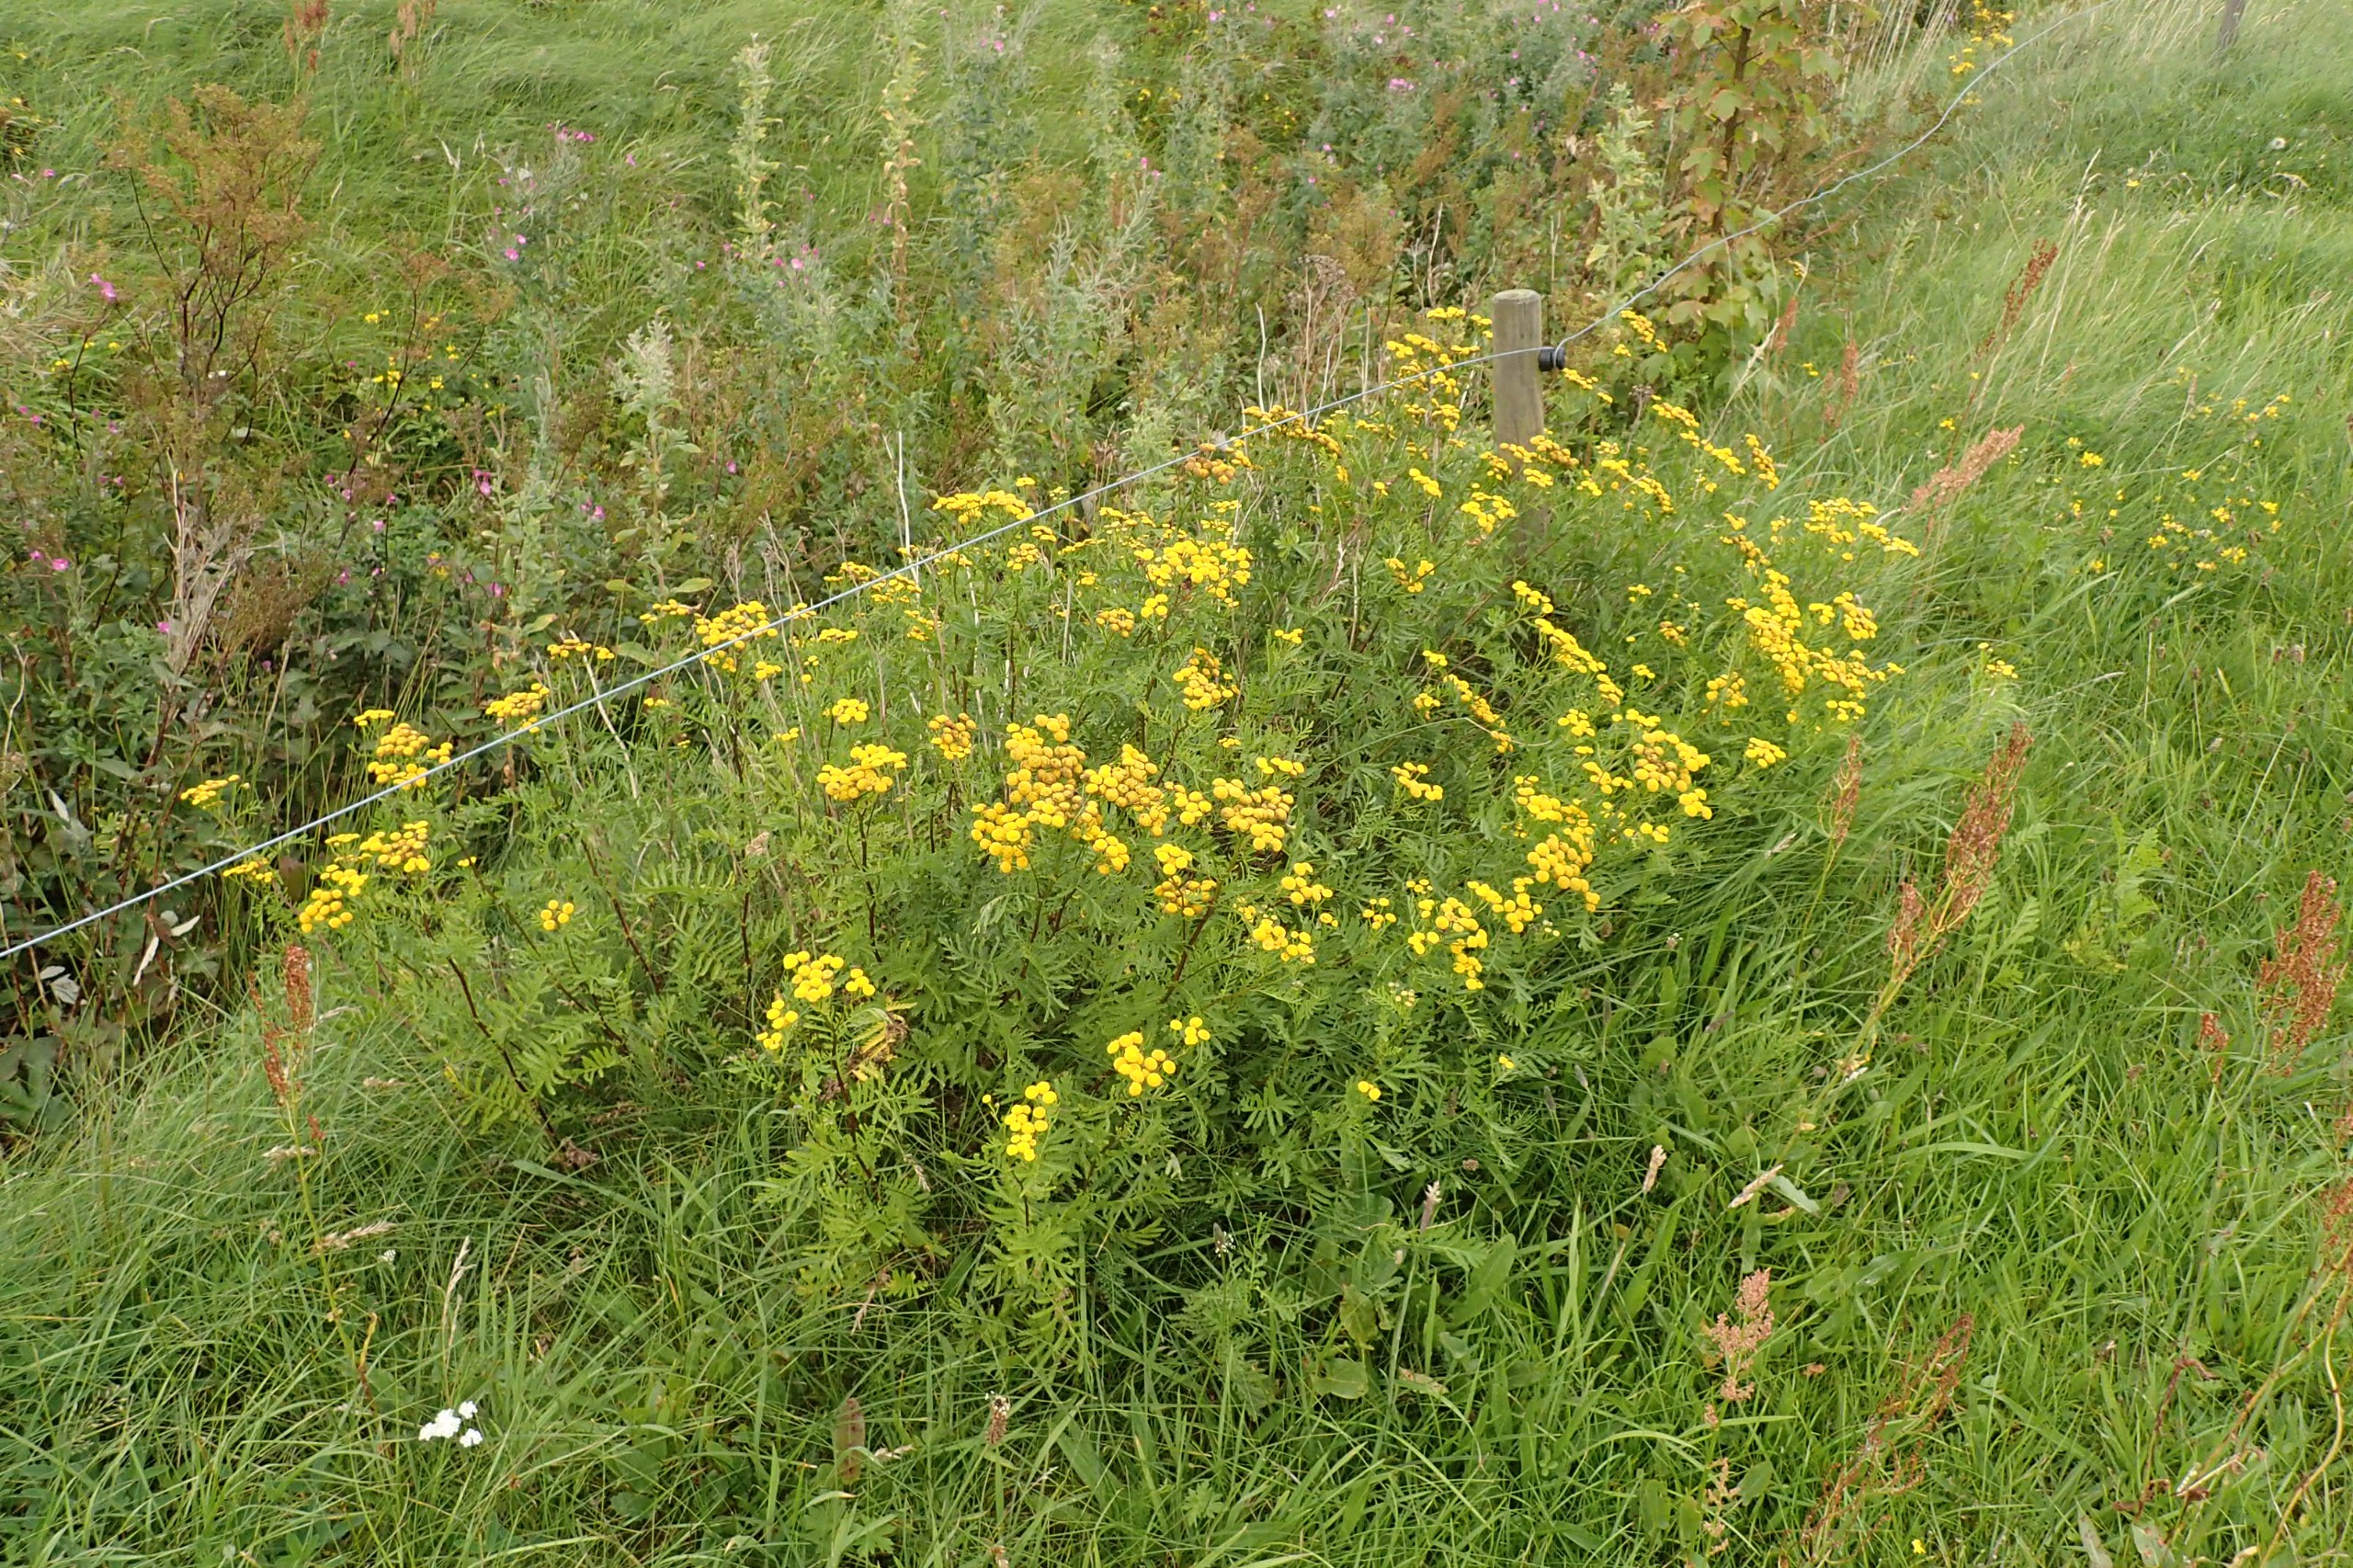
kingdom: Plantae
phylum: Tracheophyta
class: Magnoliopsida
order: Asterales
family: Asteraceae
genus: Tanacetum
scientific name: Tanacetum vulgare
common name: Rejnfan
